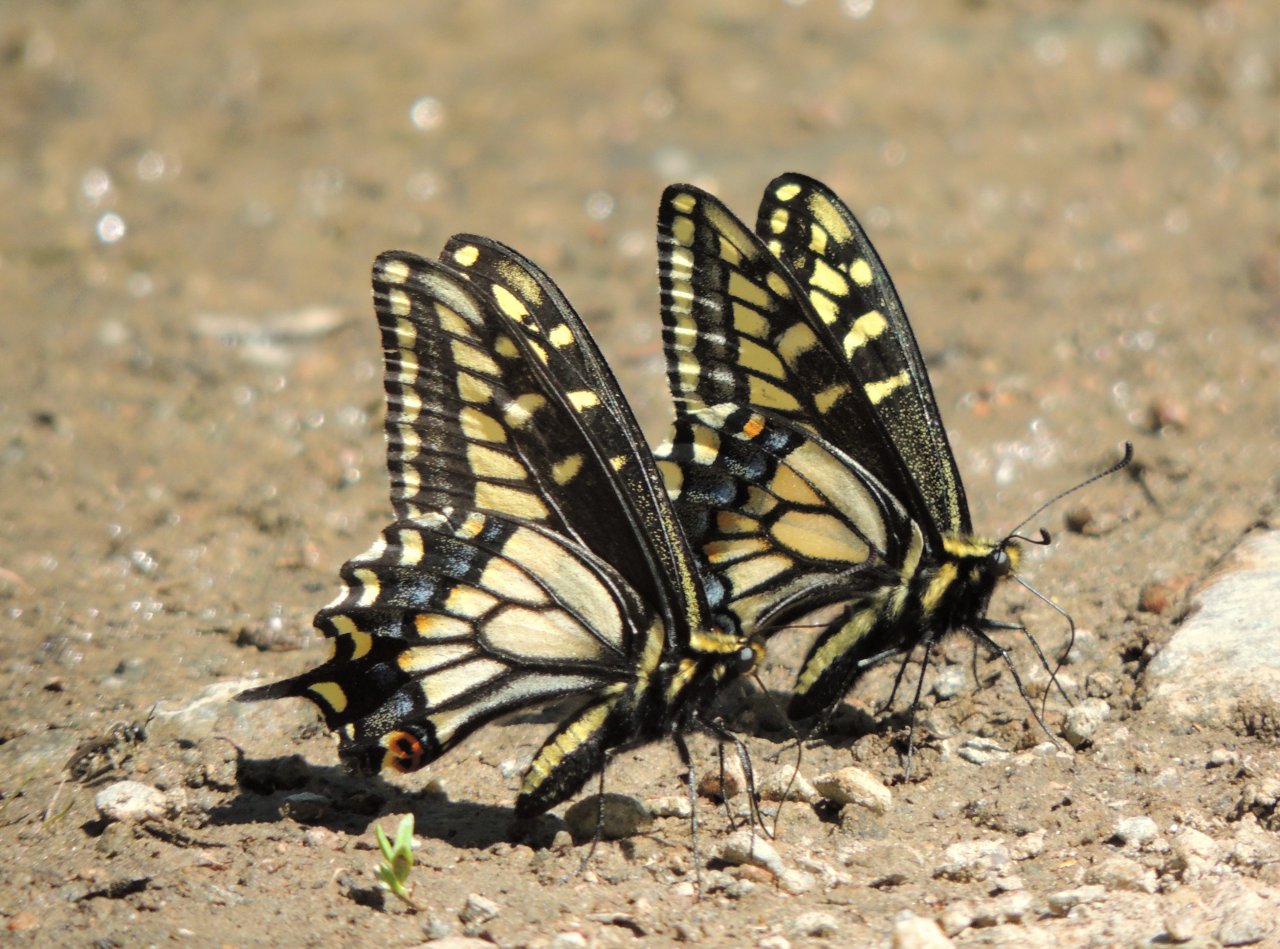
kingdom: Animalia
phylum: Arthropoda
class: Insecta
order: Lepidoptera
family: Papilionidae
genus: Papilio
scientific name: Papilio zelicaon
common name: Anise Swallowtail
